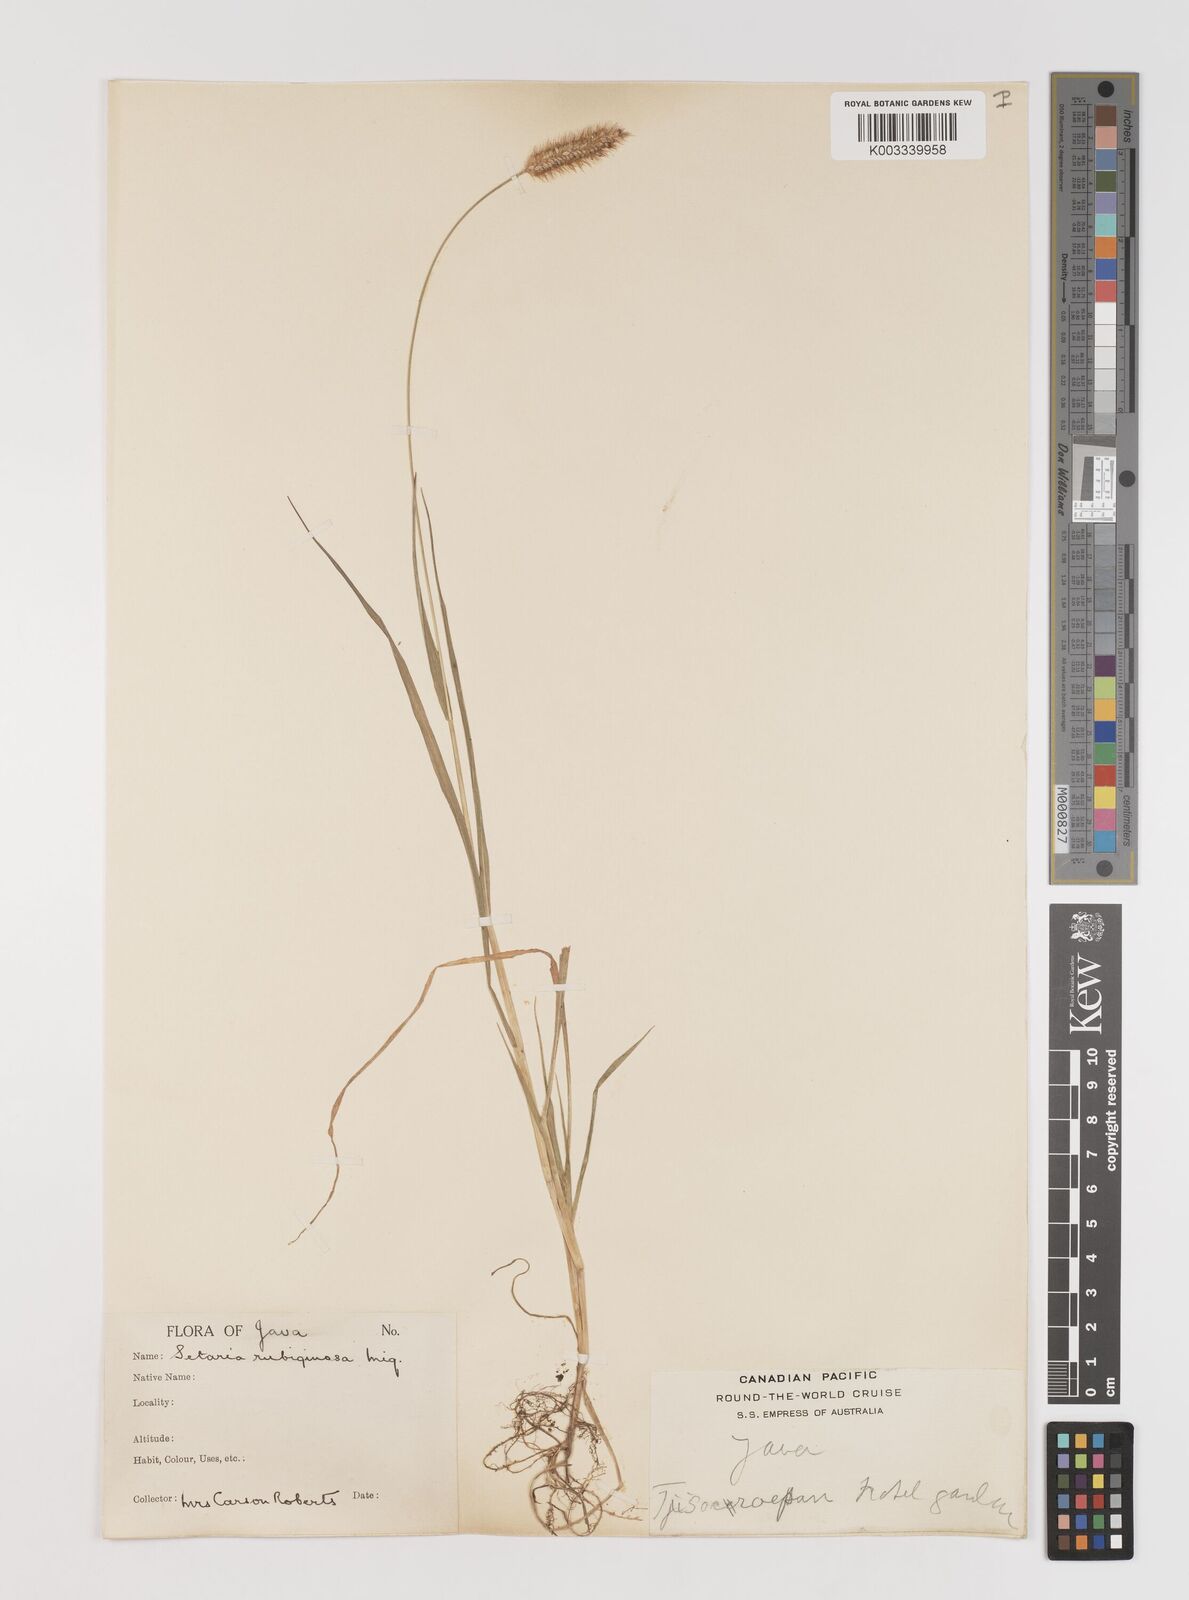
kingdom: Plantae
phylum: Tracheophyta
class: Liliopsida
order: Poales
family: Poaceae
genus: Setaria
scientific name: Setaria parviflora
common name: Knotroot bristle-grass
